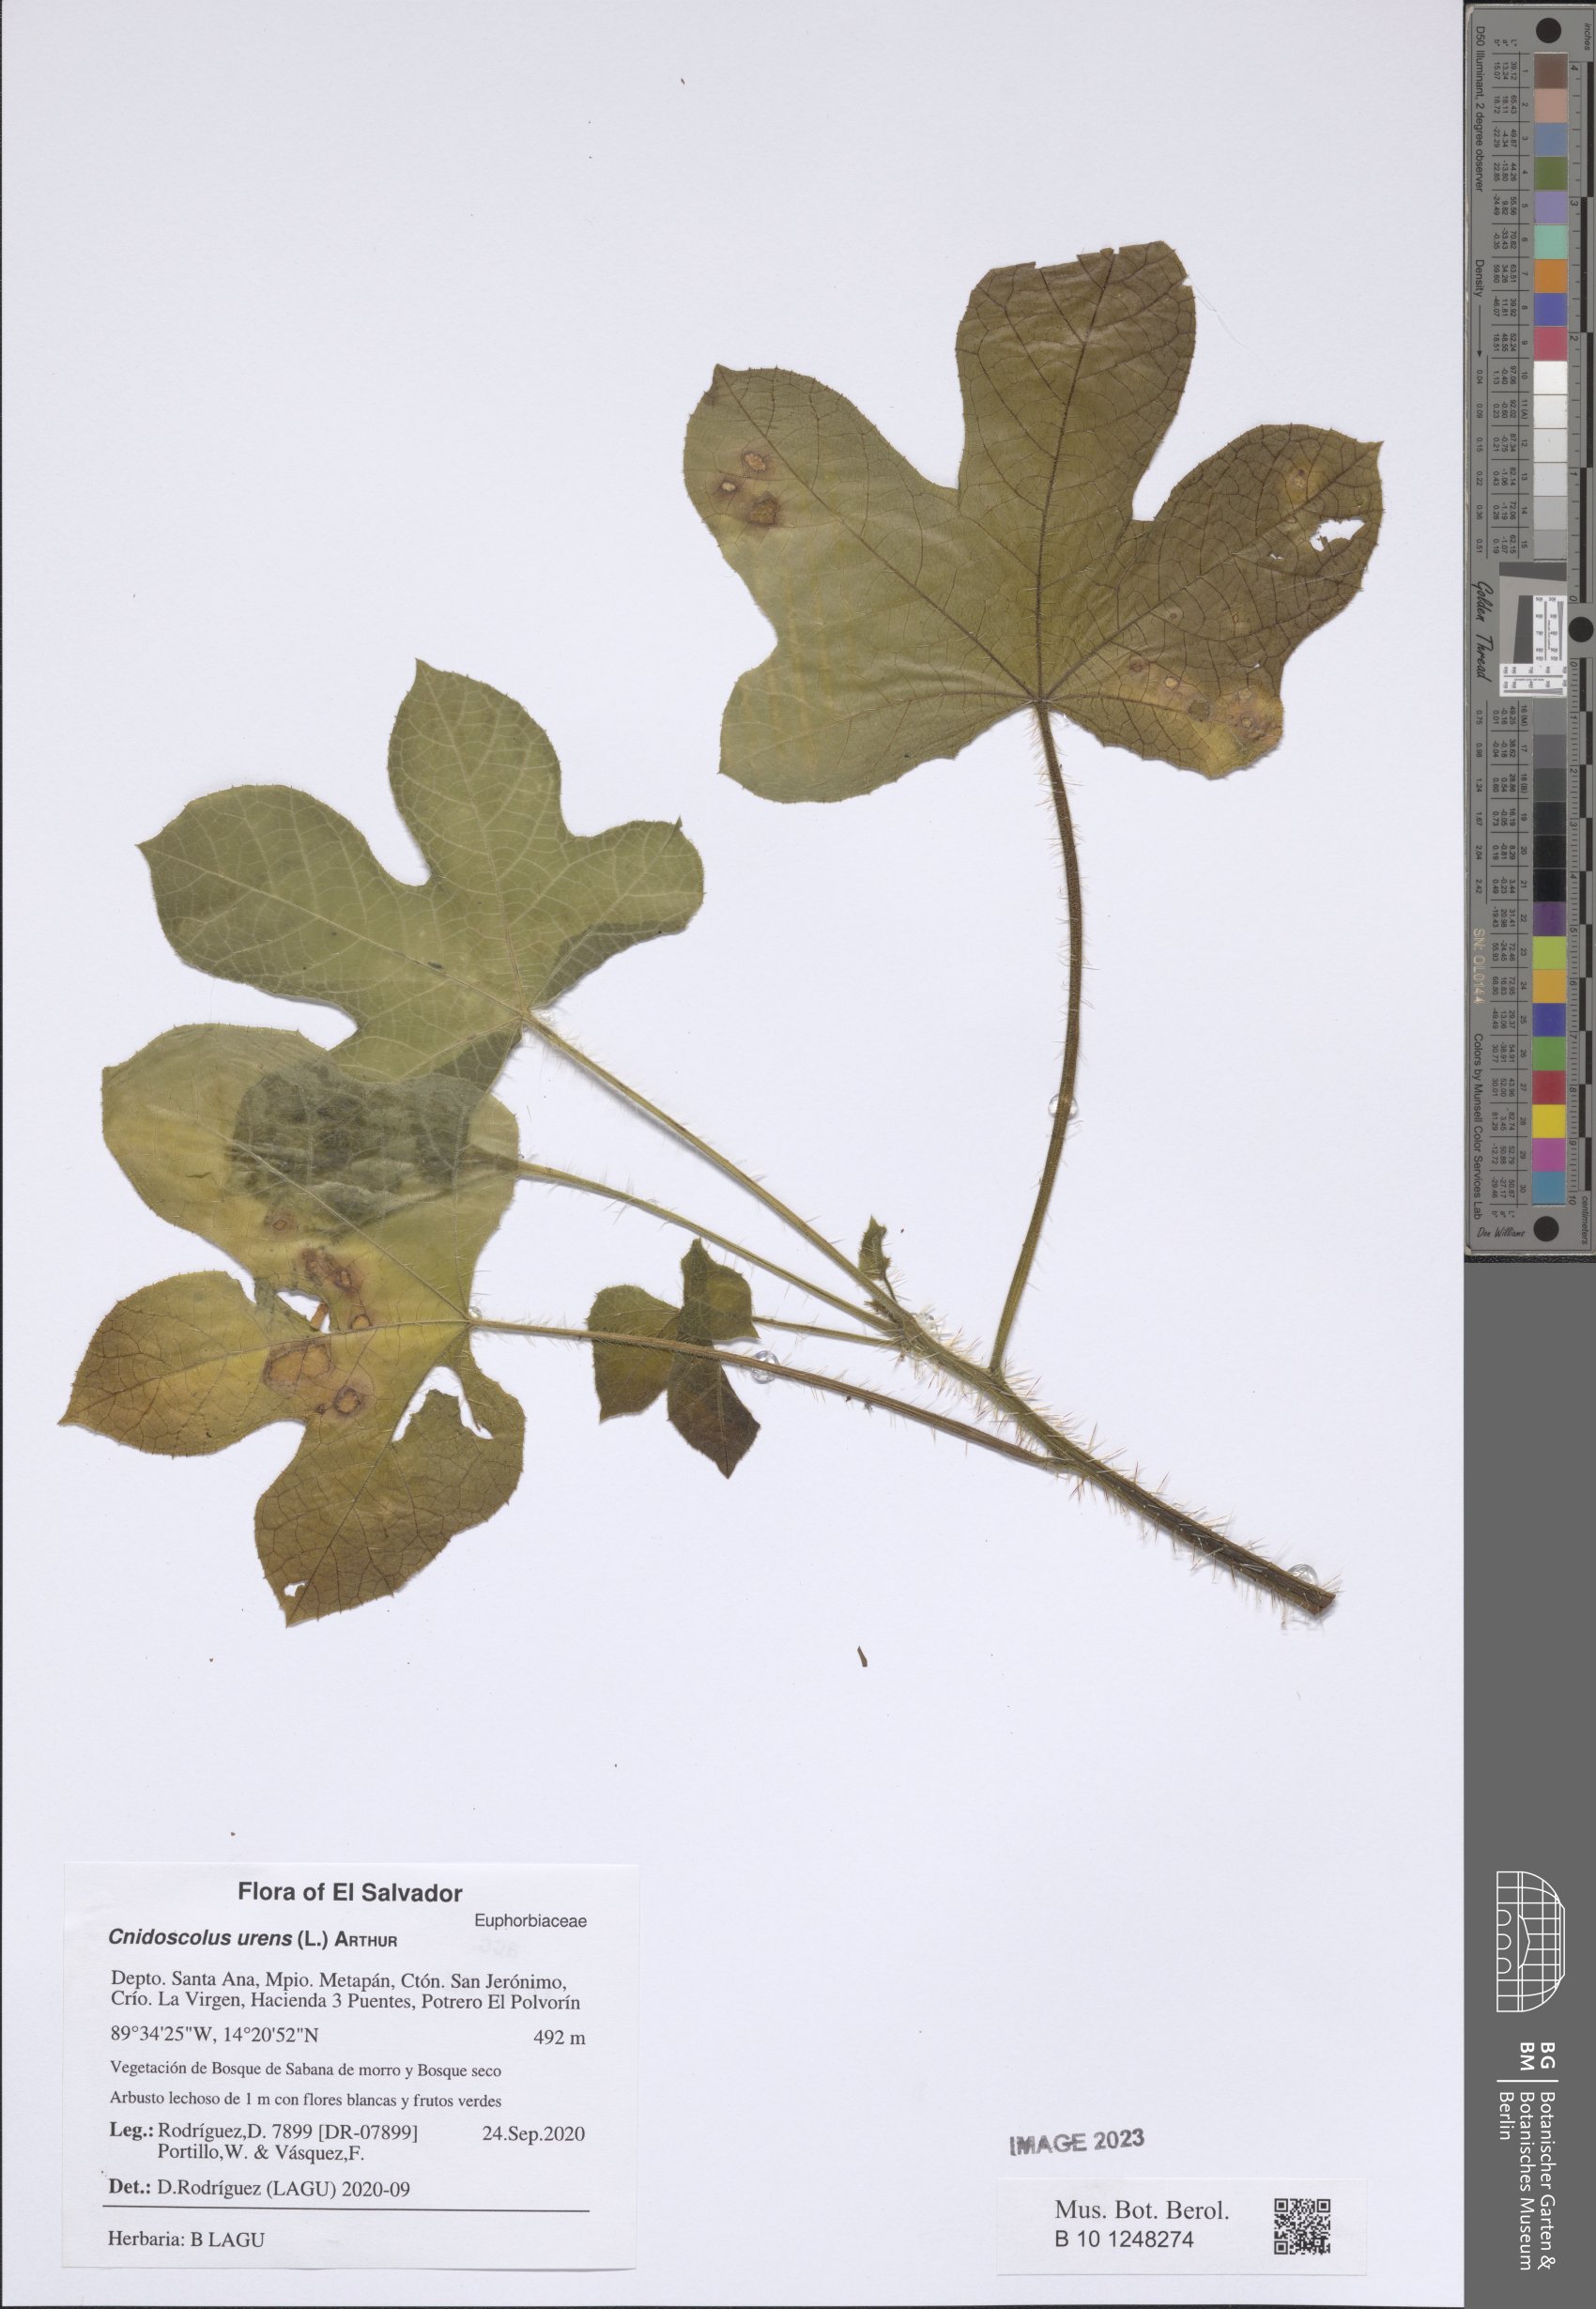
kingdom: Plantae
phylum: Tracheophyta
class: Magnoliopsida
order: Malpighiales
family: Euphorbiaceae
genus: Cnidoscolus
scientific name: Cnidoscolus urens
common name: Bull-nettle
